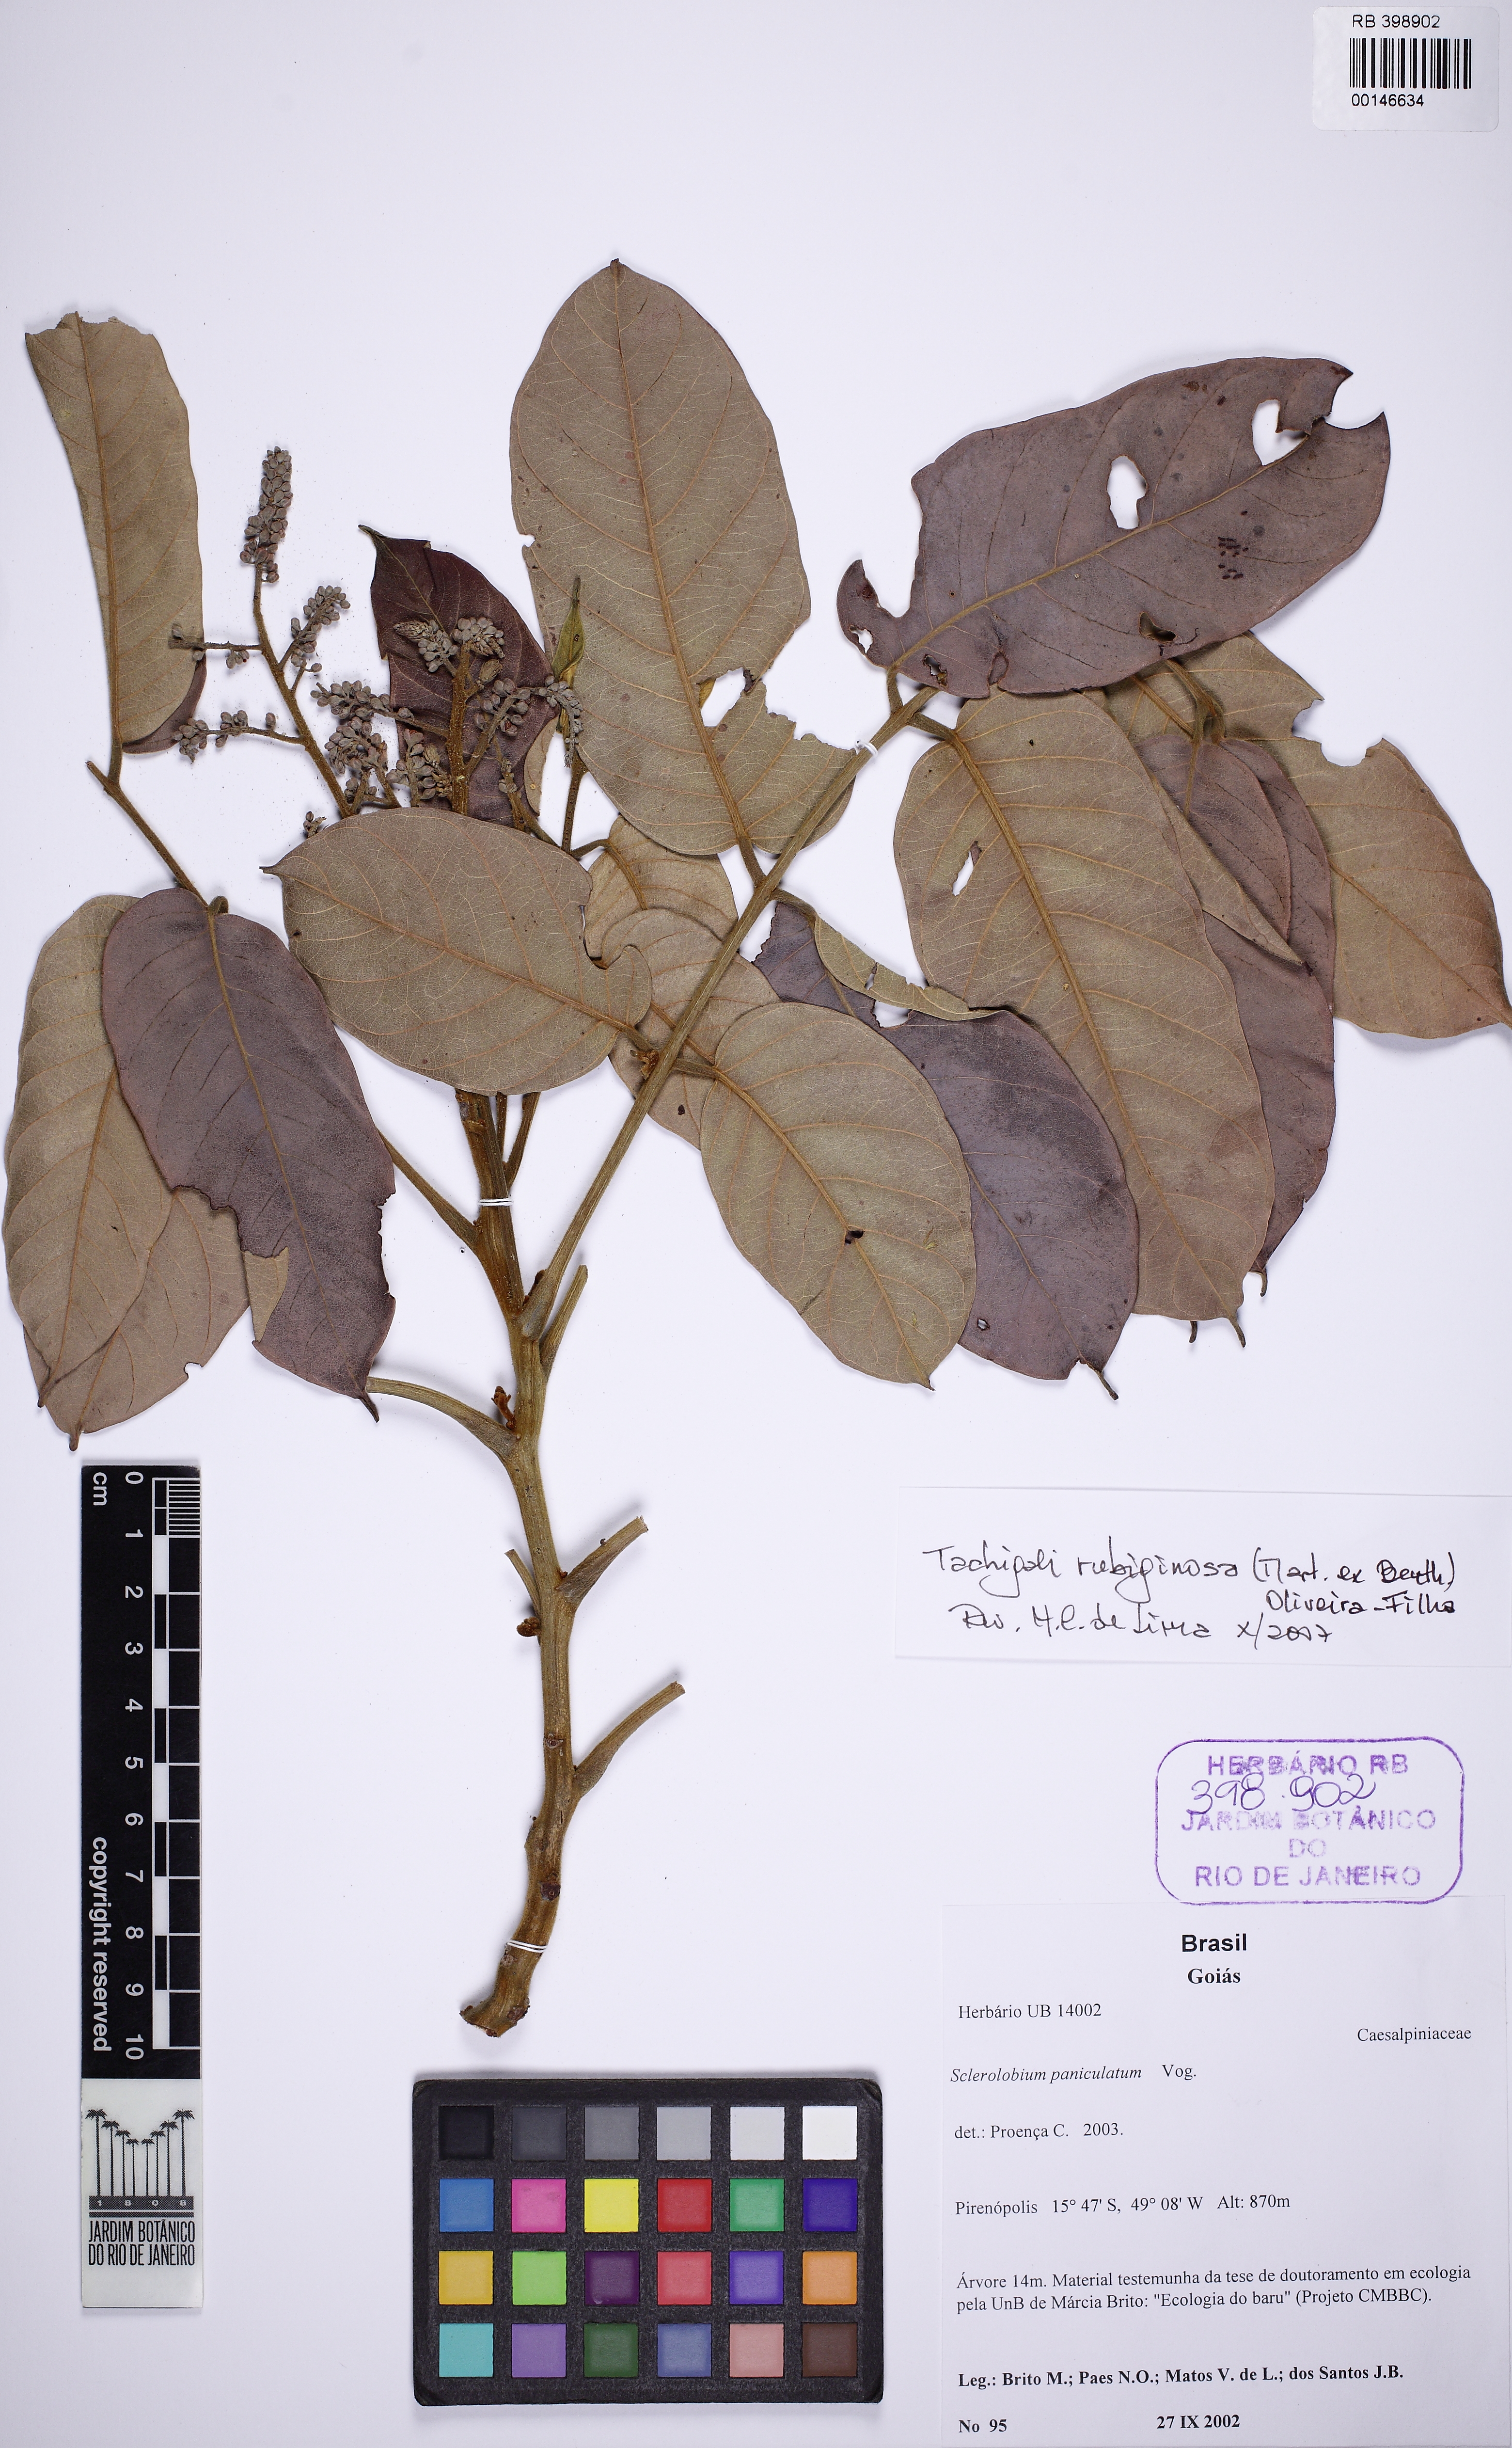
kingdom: Plantae
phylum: Tracheophyta
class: Magnoliopsida
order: Fabales
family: Fabaceae
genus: Tachigali
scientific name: Tachigali rubiginosa
